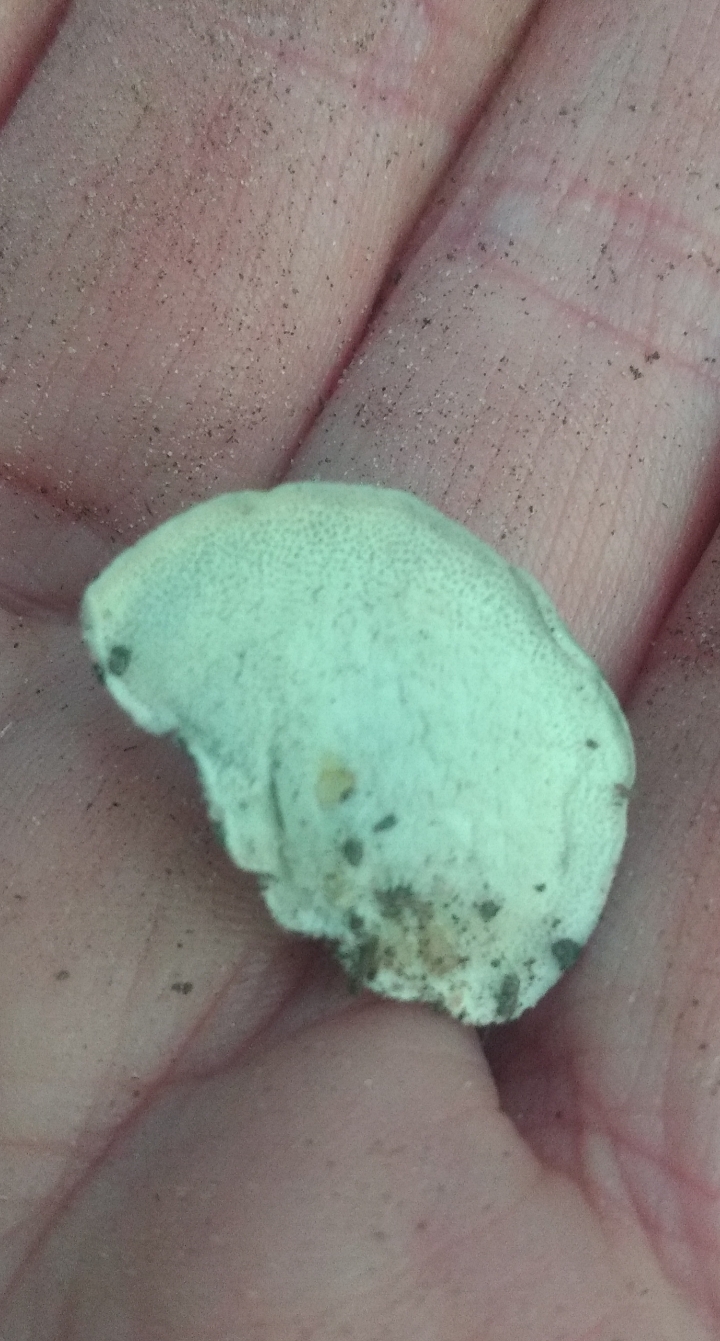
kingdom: Fungi
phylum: Basidiomycota
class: Agaricomycetes
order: Polyporales
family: Polyporaceae
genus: Cyanosporus
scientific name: Cyanosporus caesius
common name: blålig kødporesvamp
